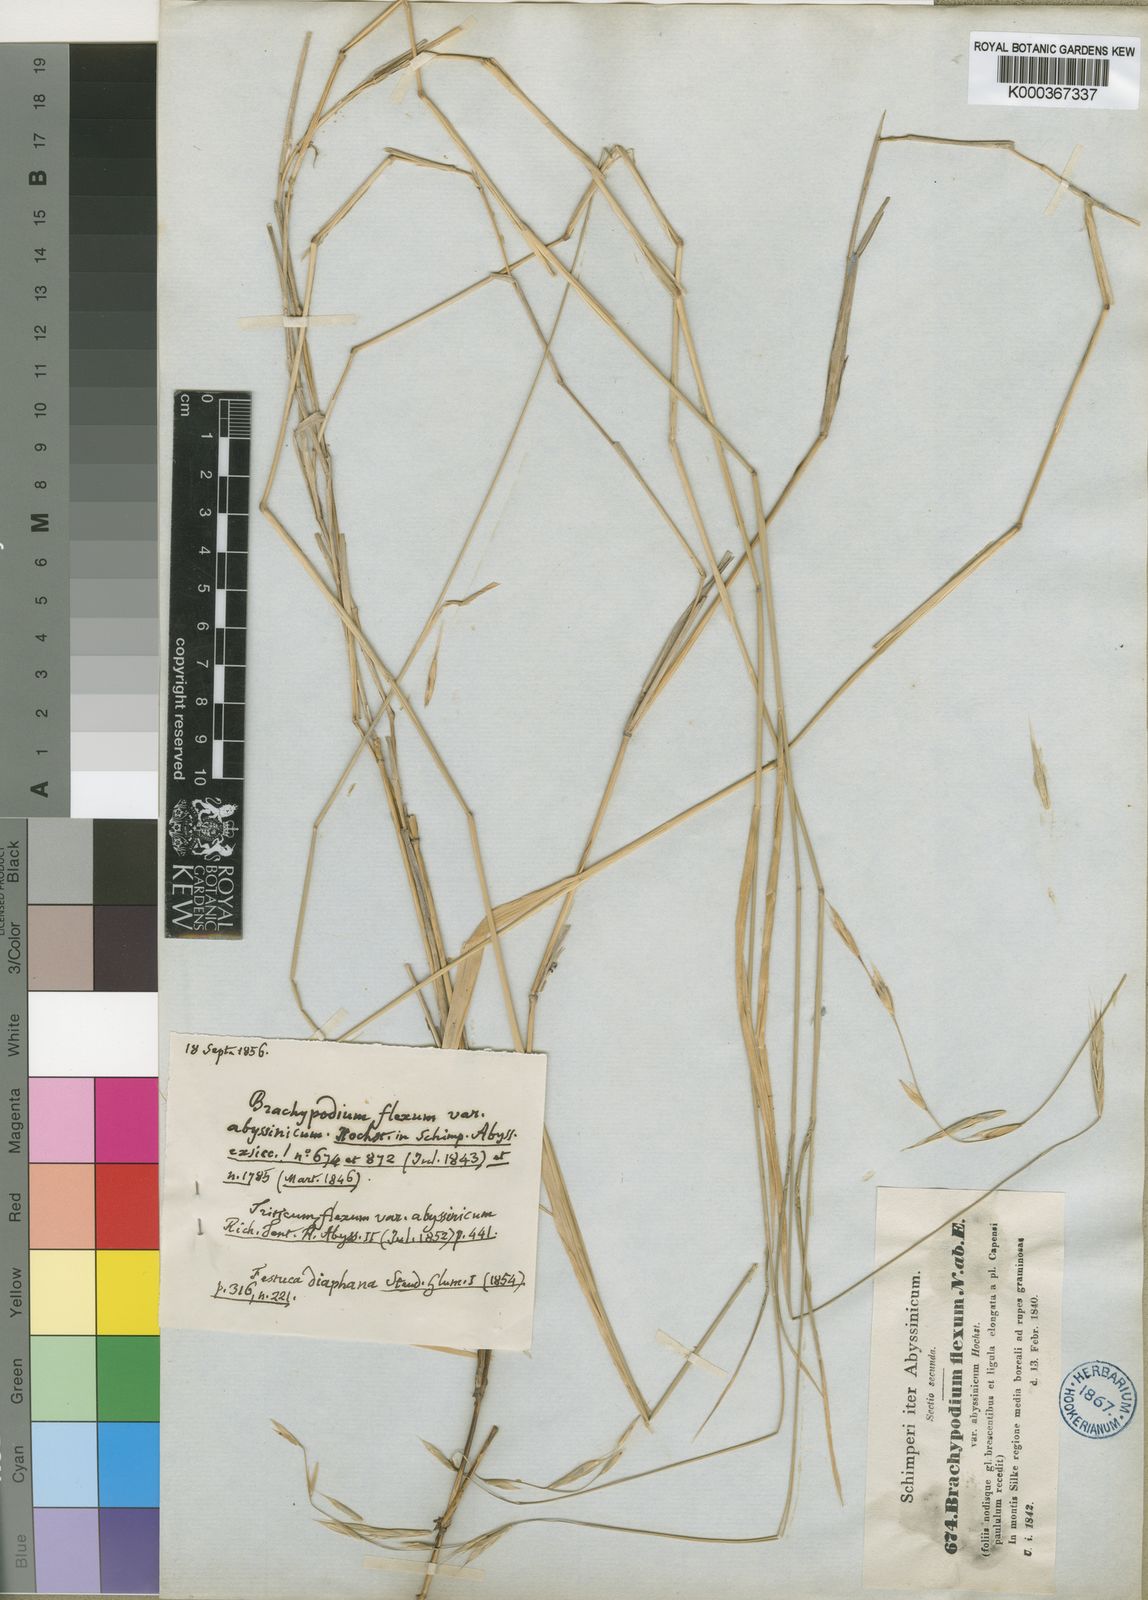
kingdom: Plantae
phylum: Tracheophyta
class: Liliopsida
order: Poales
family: Poaceae
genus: Brachypodium
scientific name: Brachypodium flexum
